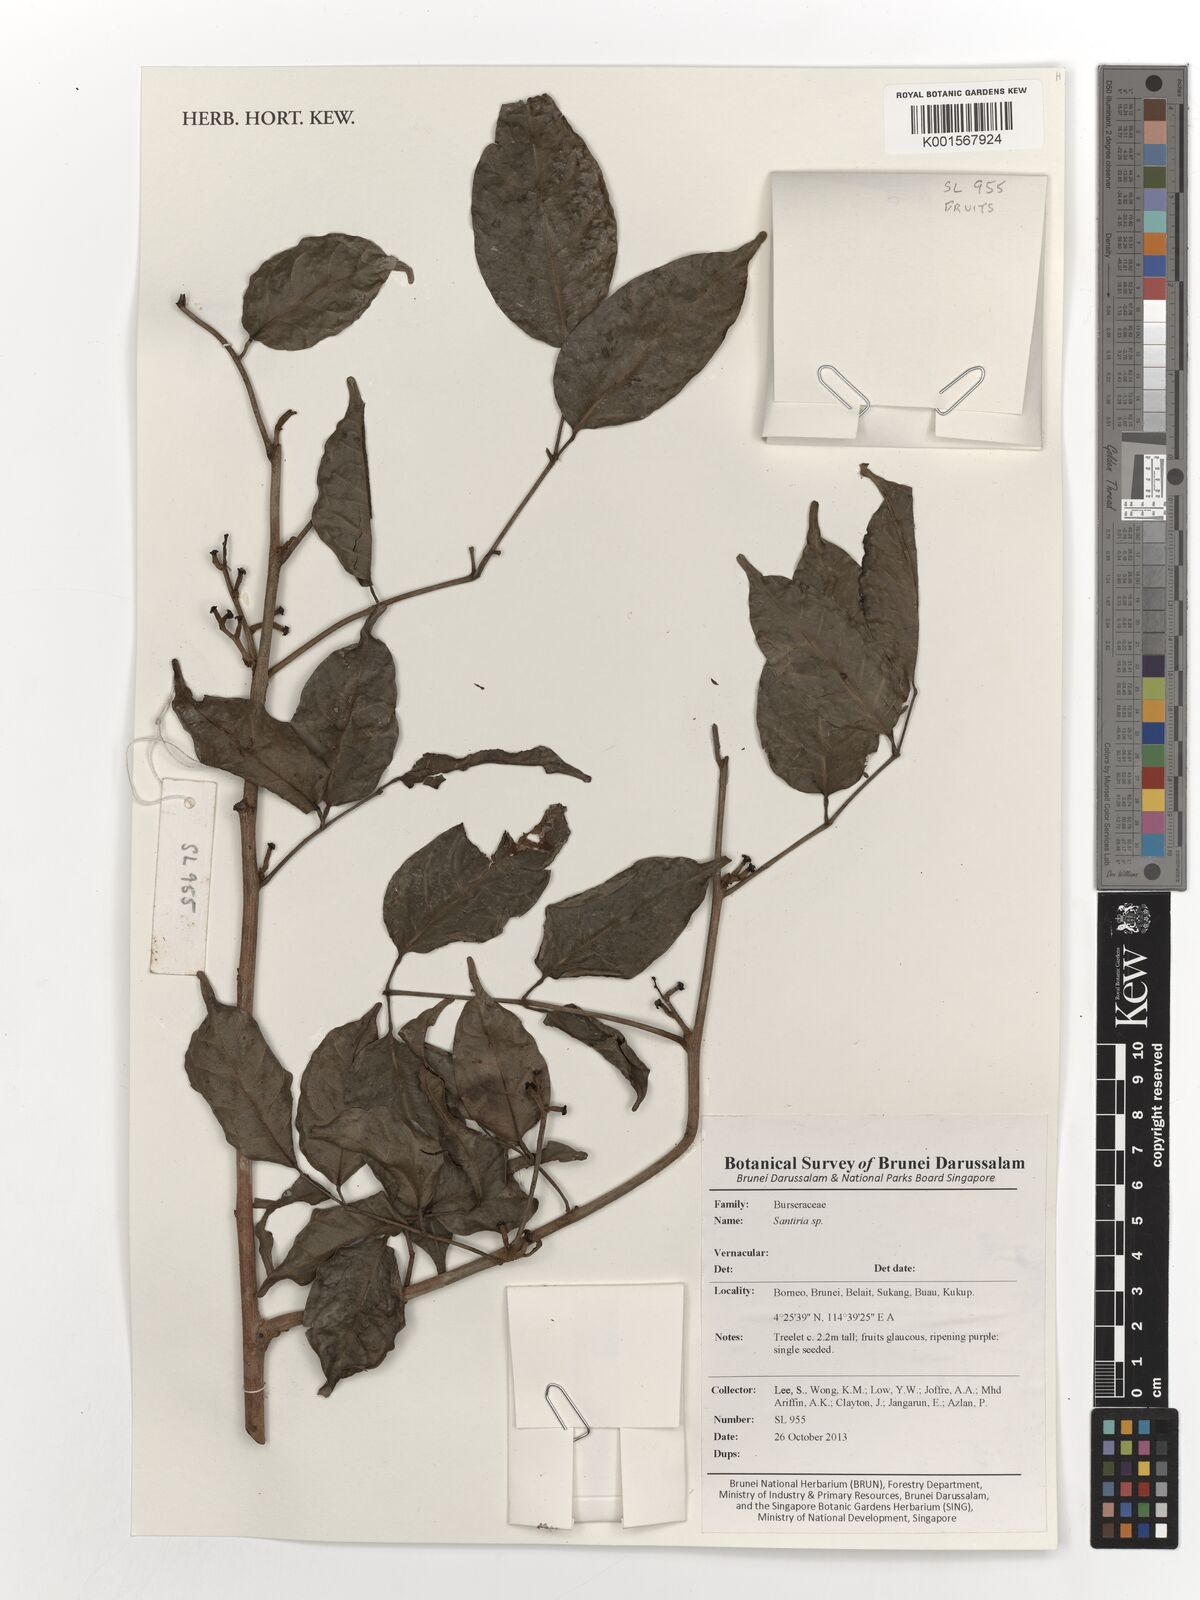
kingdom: Plantae
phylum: Tracheophyta
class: Magnoliopsida
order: Sapindales
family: Burseraceae
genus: Santiria
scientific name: Santiria
